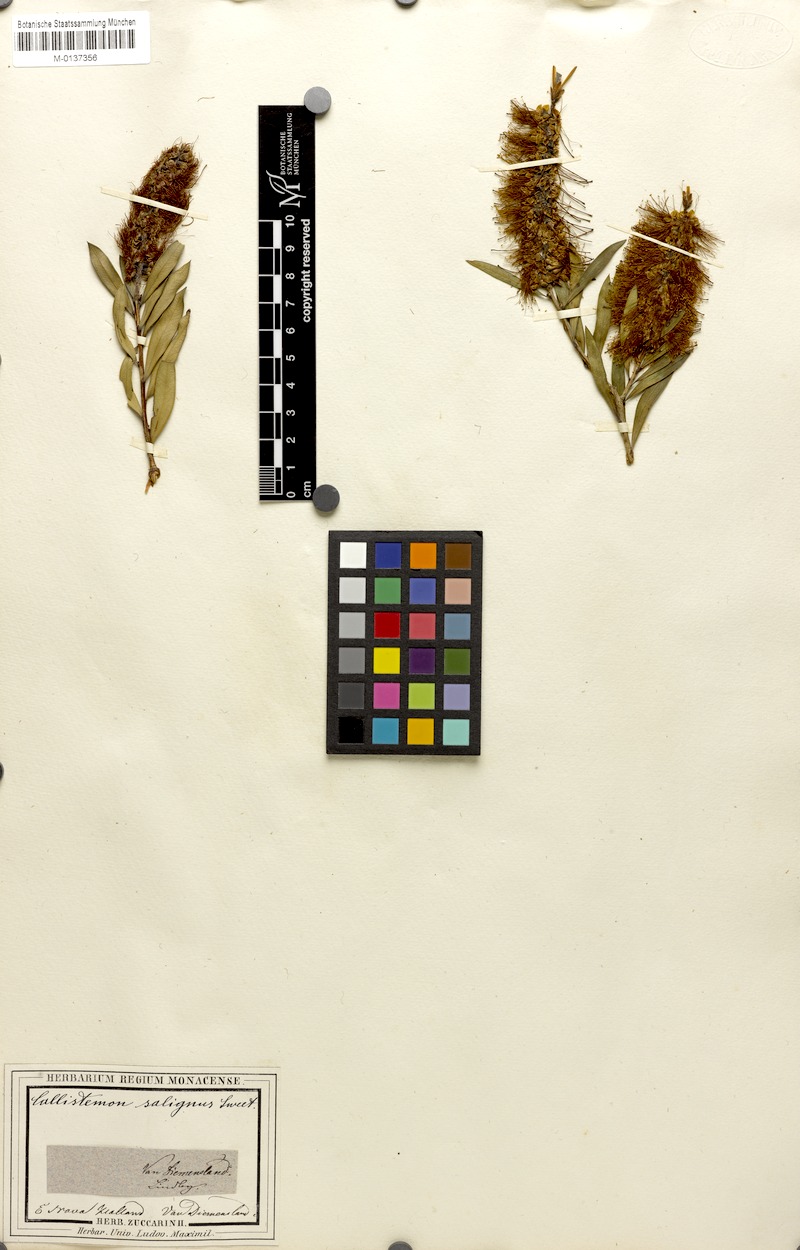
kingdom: Plantae
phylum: Tracheophyta
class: Magnoliopsida
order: Myrtales
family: Myrtaceae
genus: Callistemon
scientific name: Callistemon salignus
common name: White bottlebrush
